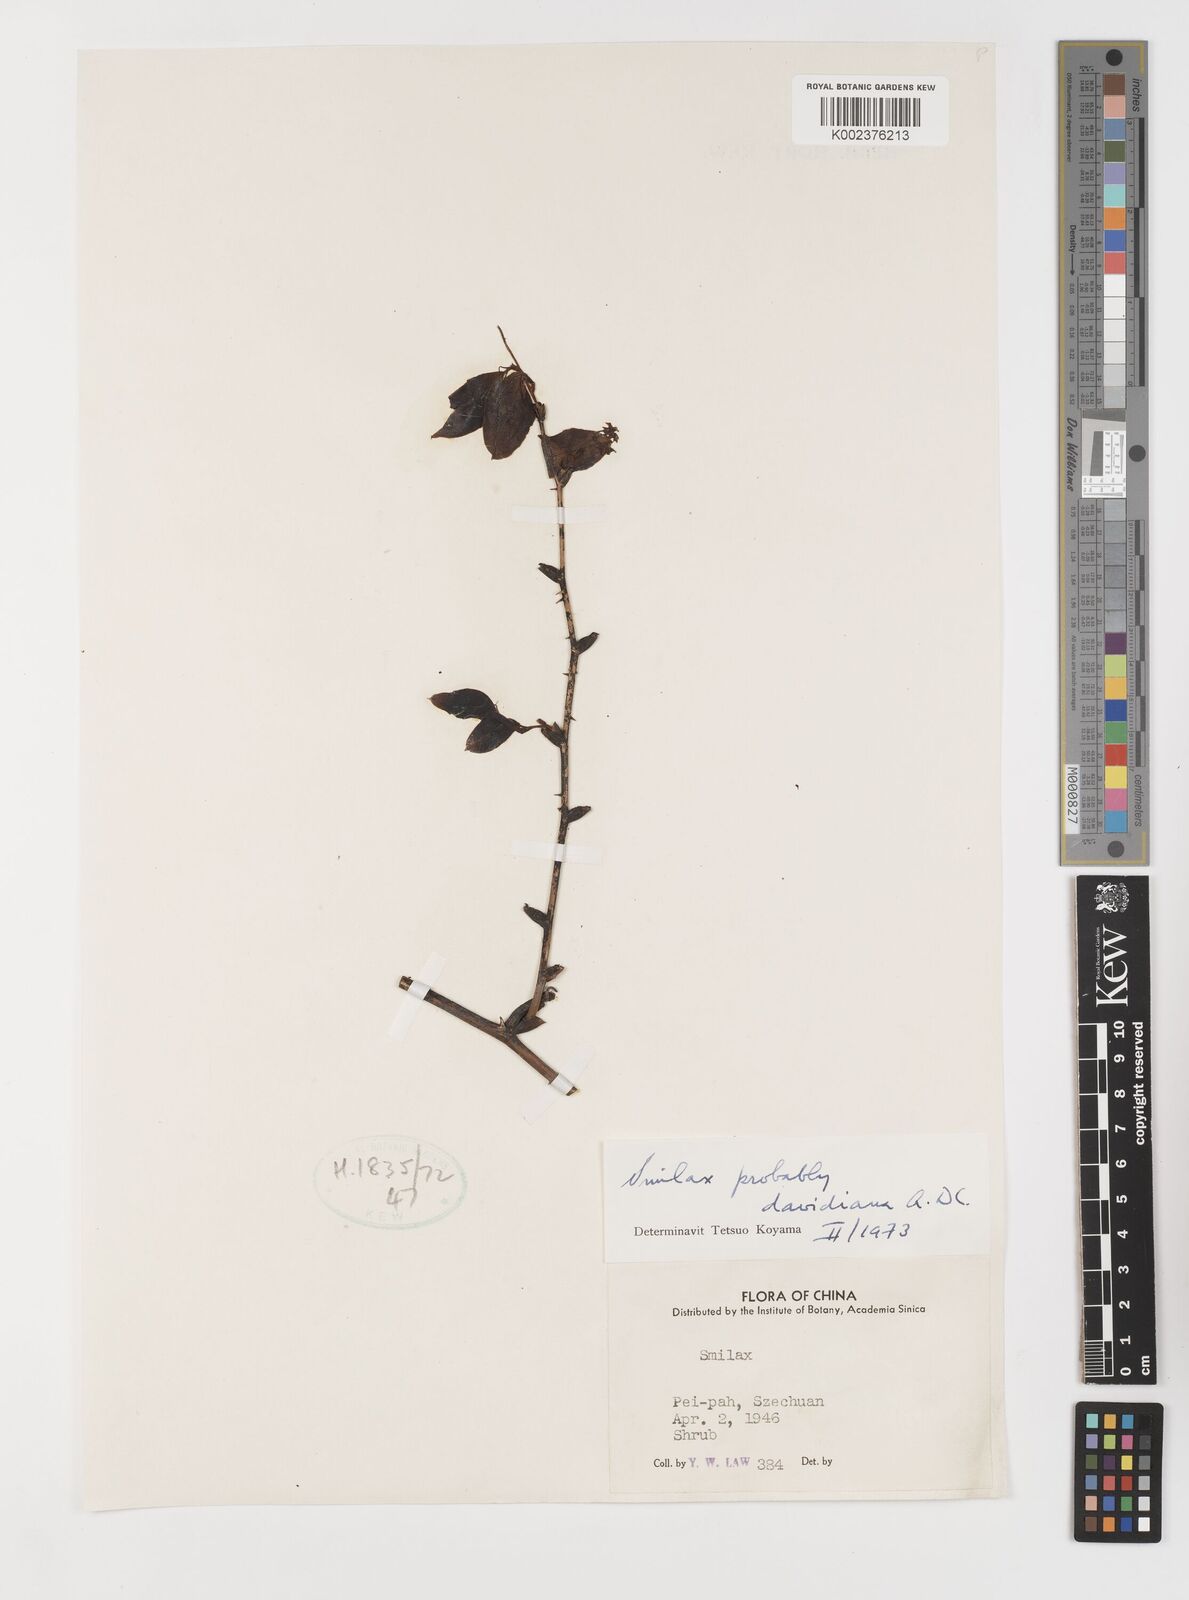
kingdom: Plantae
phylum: Tracheophyta
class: Liliopsida
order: Liliales
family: Smilacaceae
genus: Smilax
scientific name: Smilax davidiana
